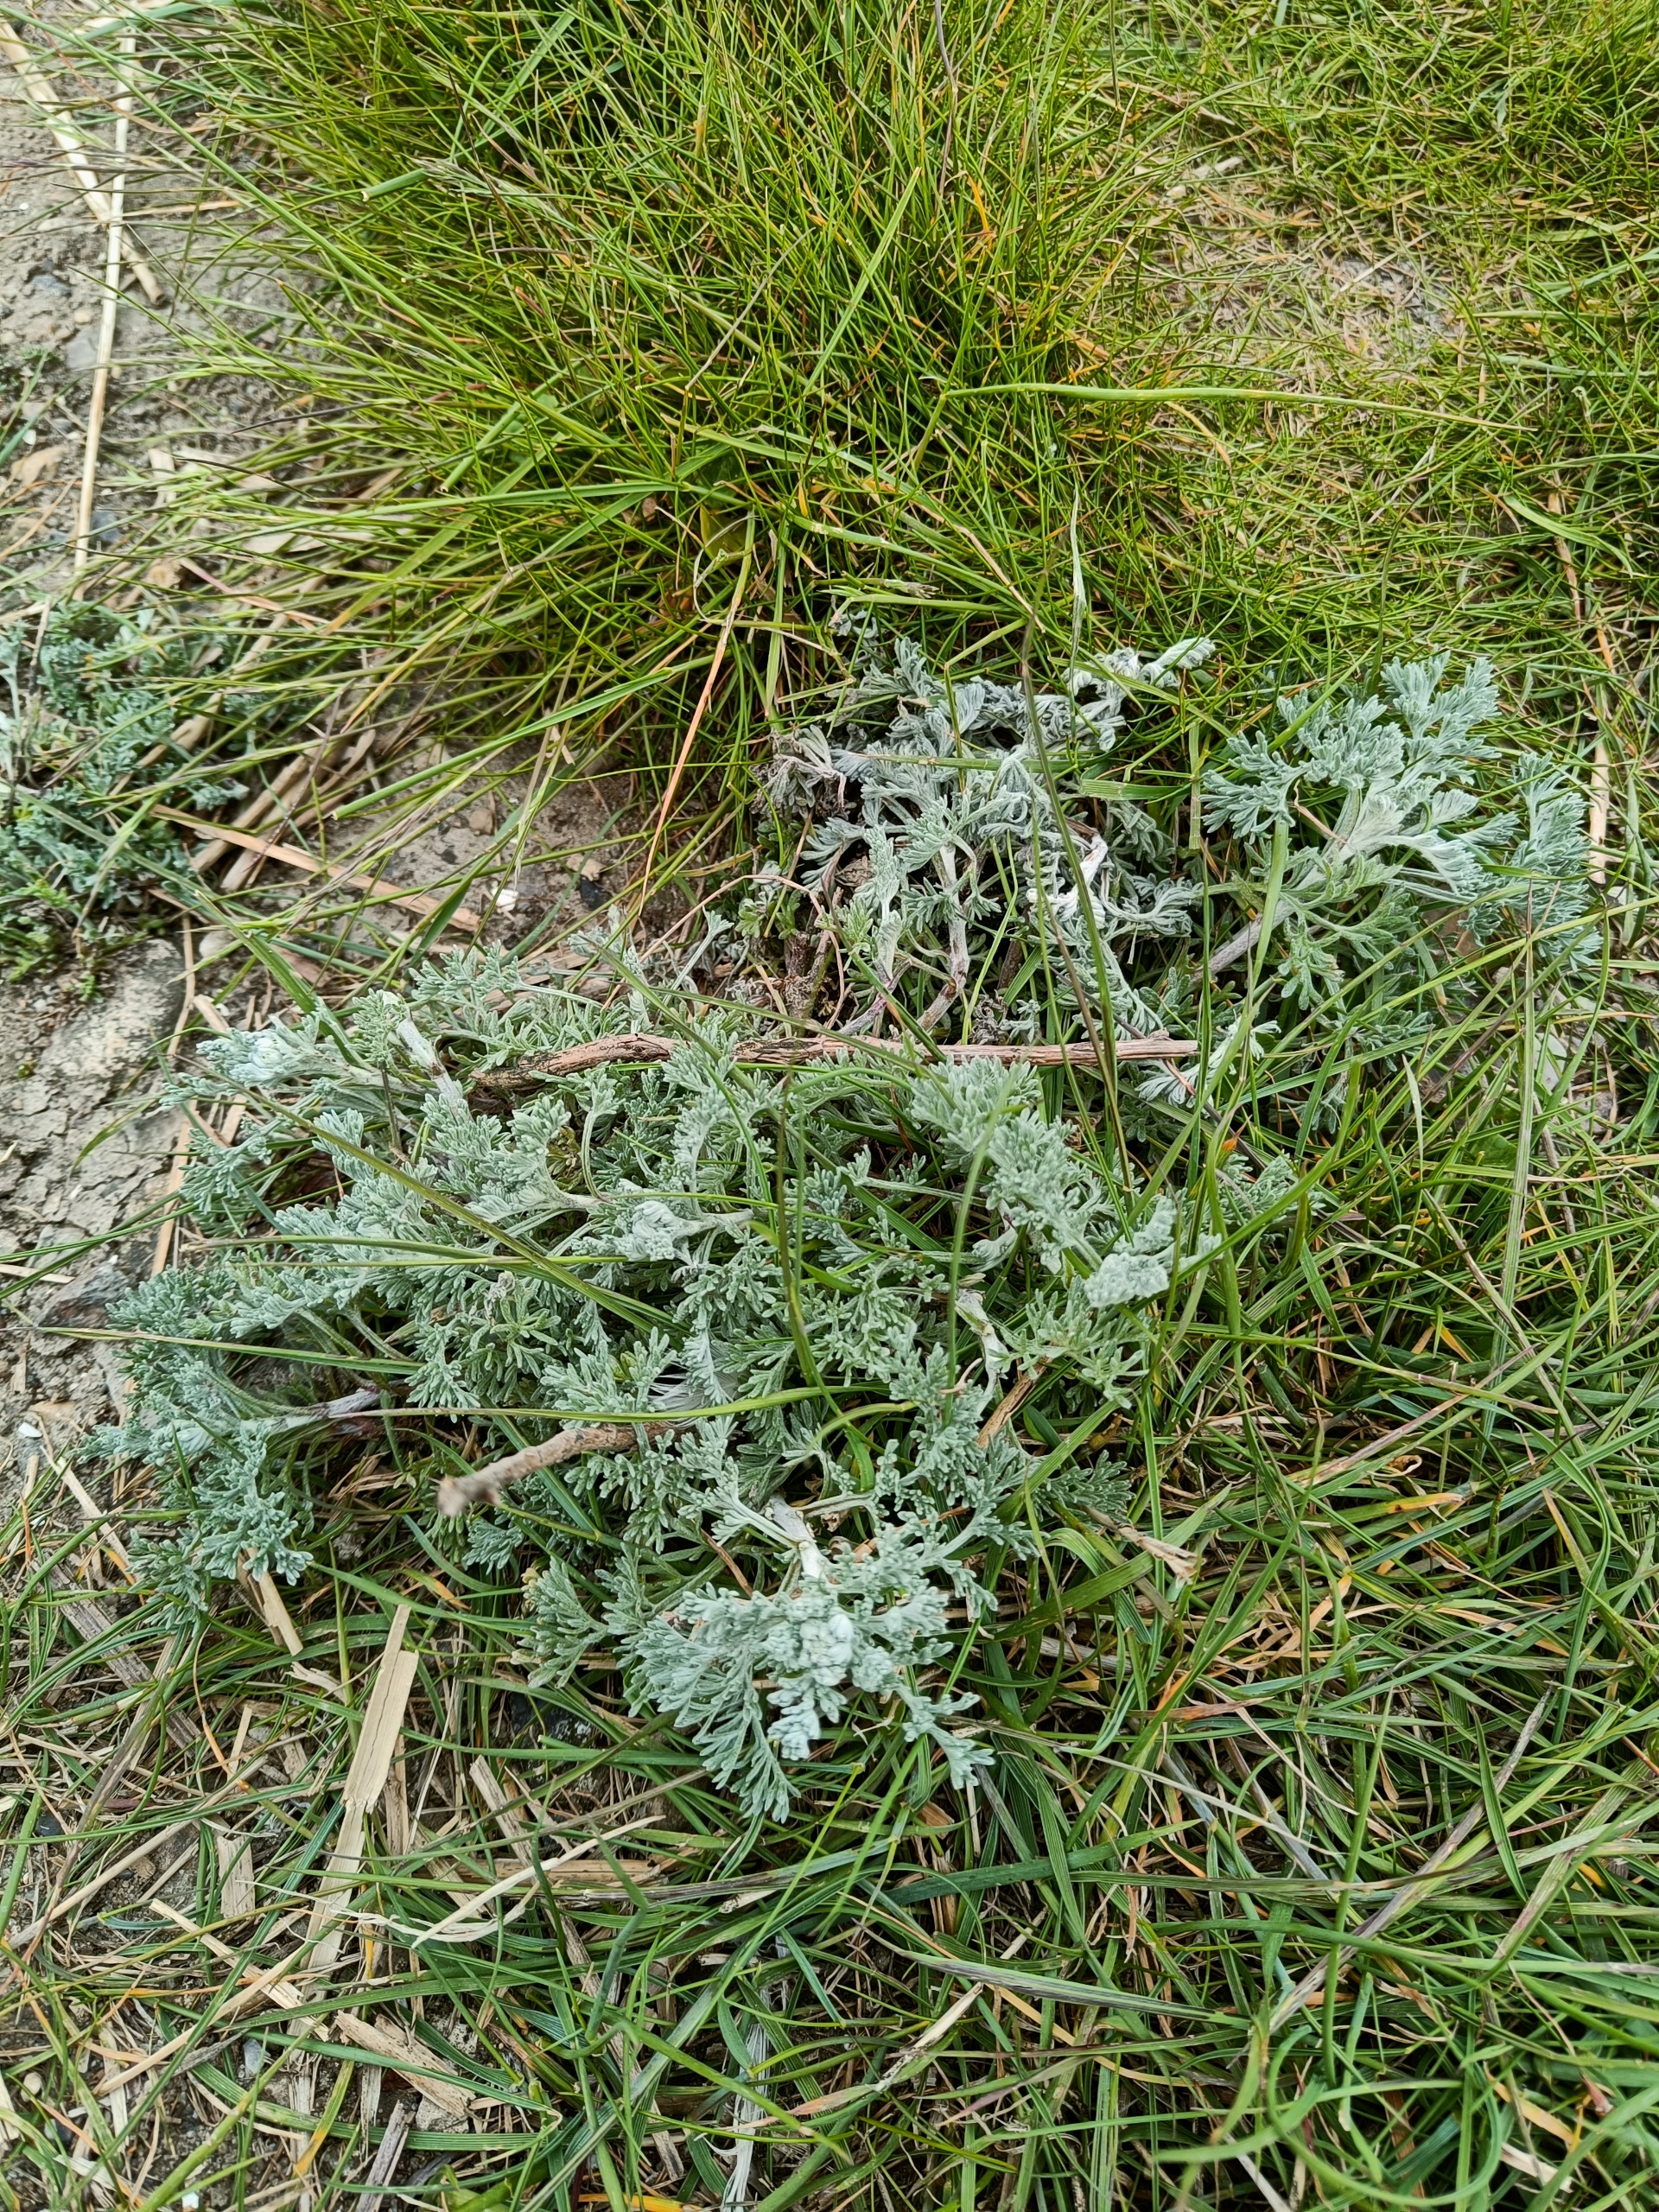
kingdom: Plantae
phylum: Tracheophyta
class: Magnoliopsida
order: Asterales
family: Asteraceae
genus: Artemisia
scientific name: Artemisia maritima
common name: Strandmalurt
